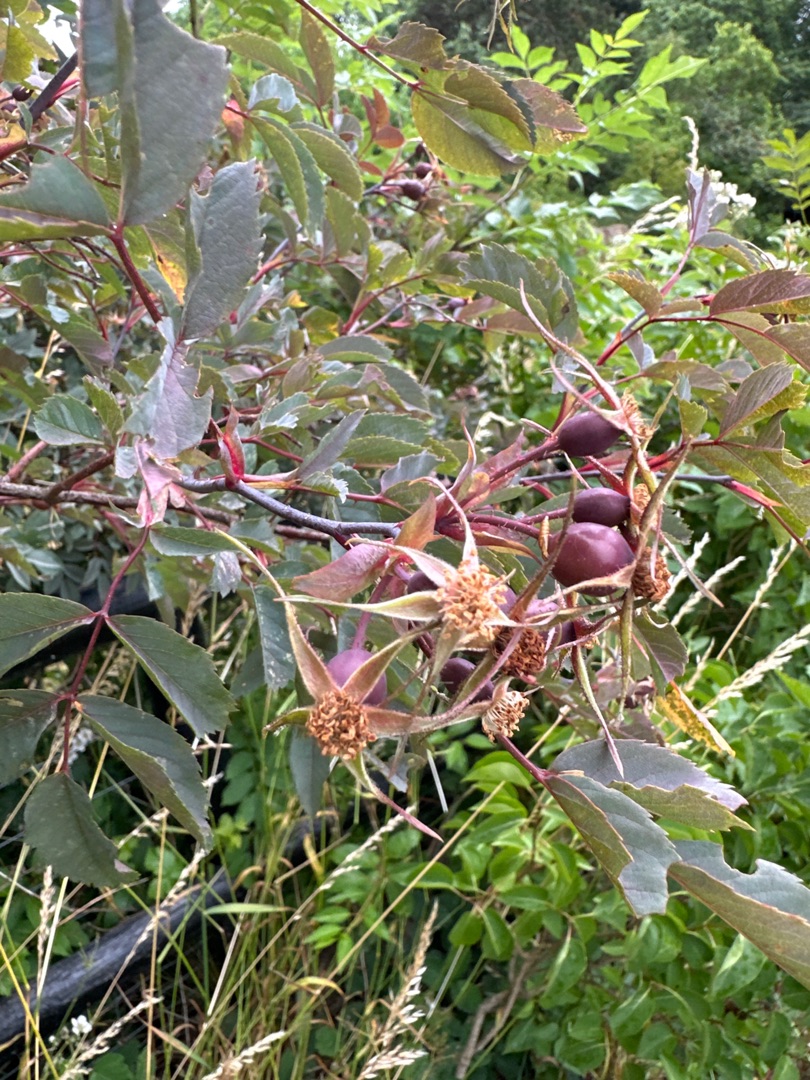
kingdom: Plantae
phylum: Tracheophyta
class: Magnoliopsida
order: Rosales
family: Rosaceae
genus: Rosa
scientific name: Rosa glauca
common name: Kobber-rose
